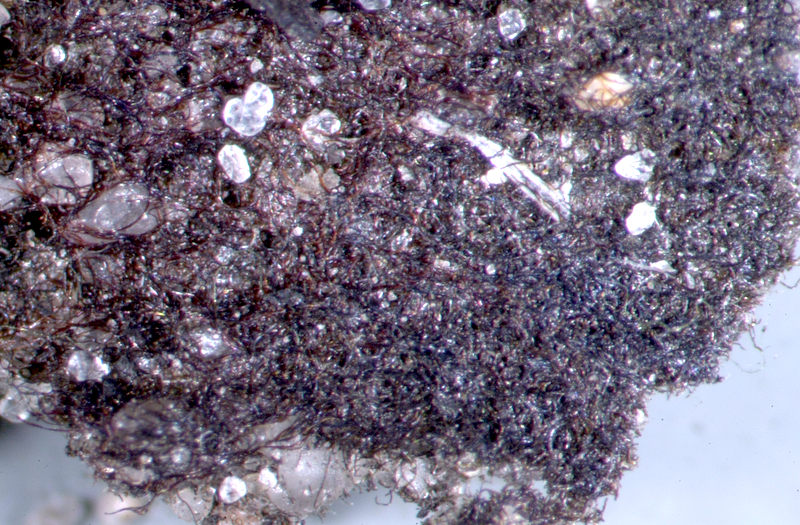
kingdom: Bacteria
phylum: Cyanobacteria
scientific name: Cyanobacteria
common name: Cyanobacteria
